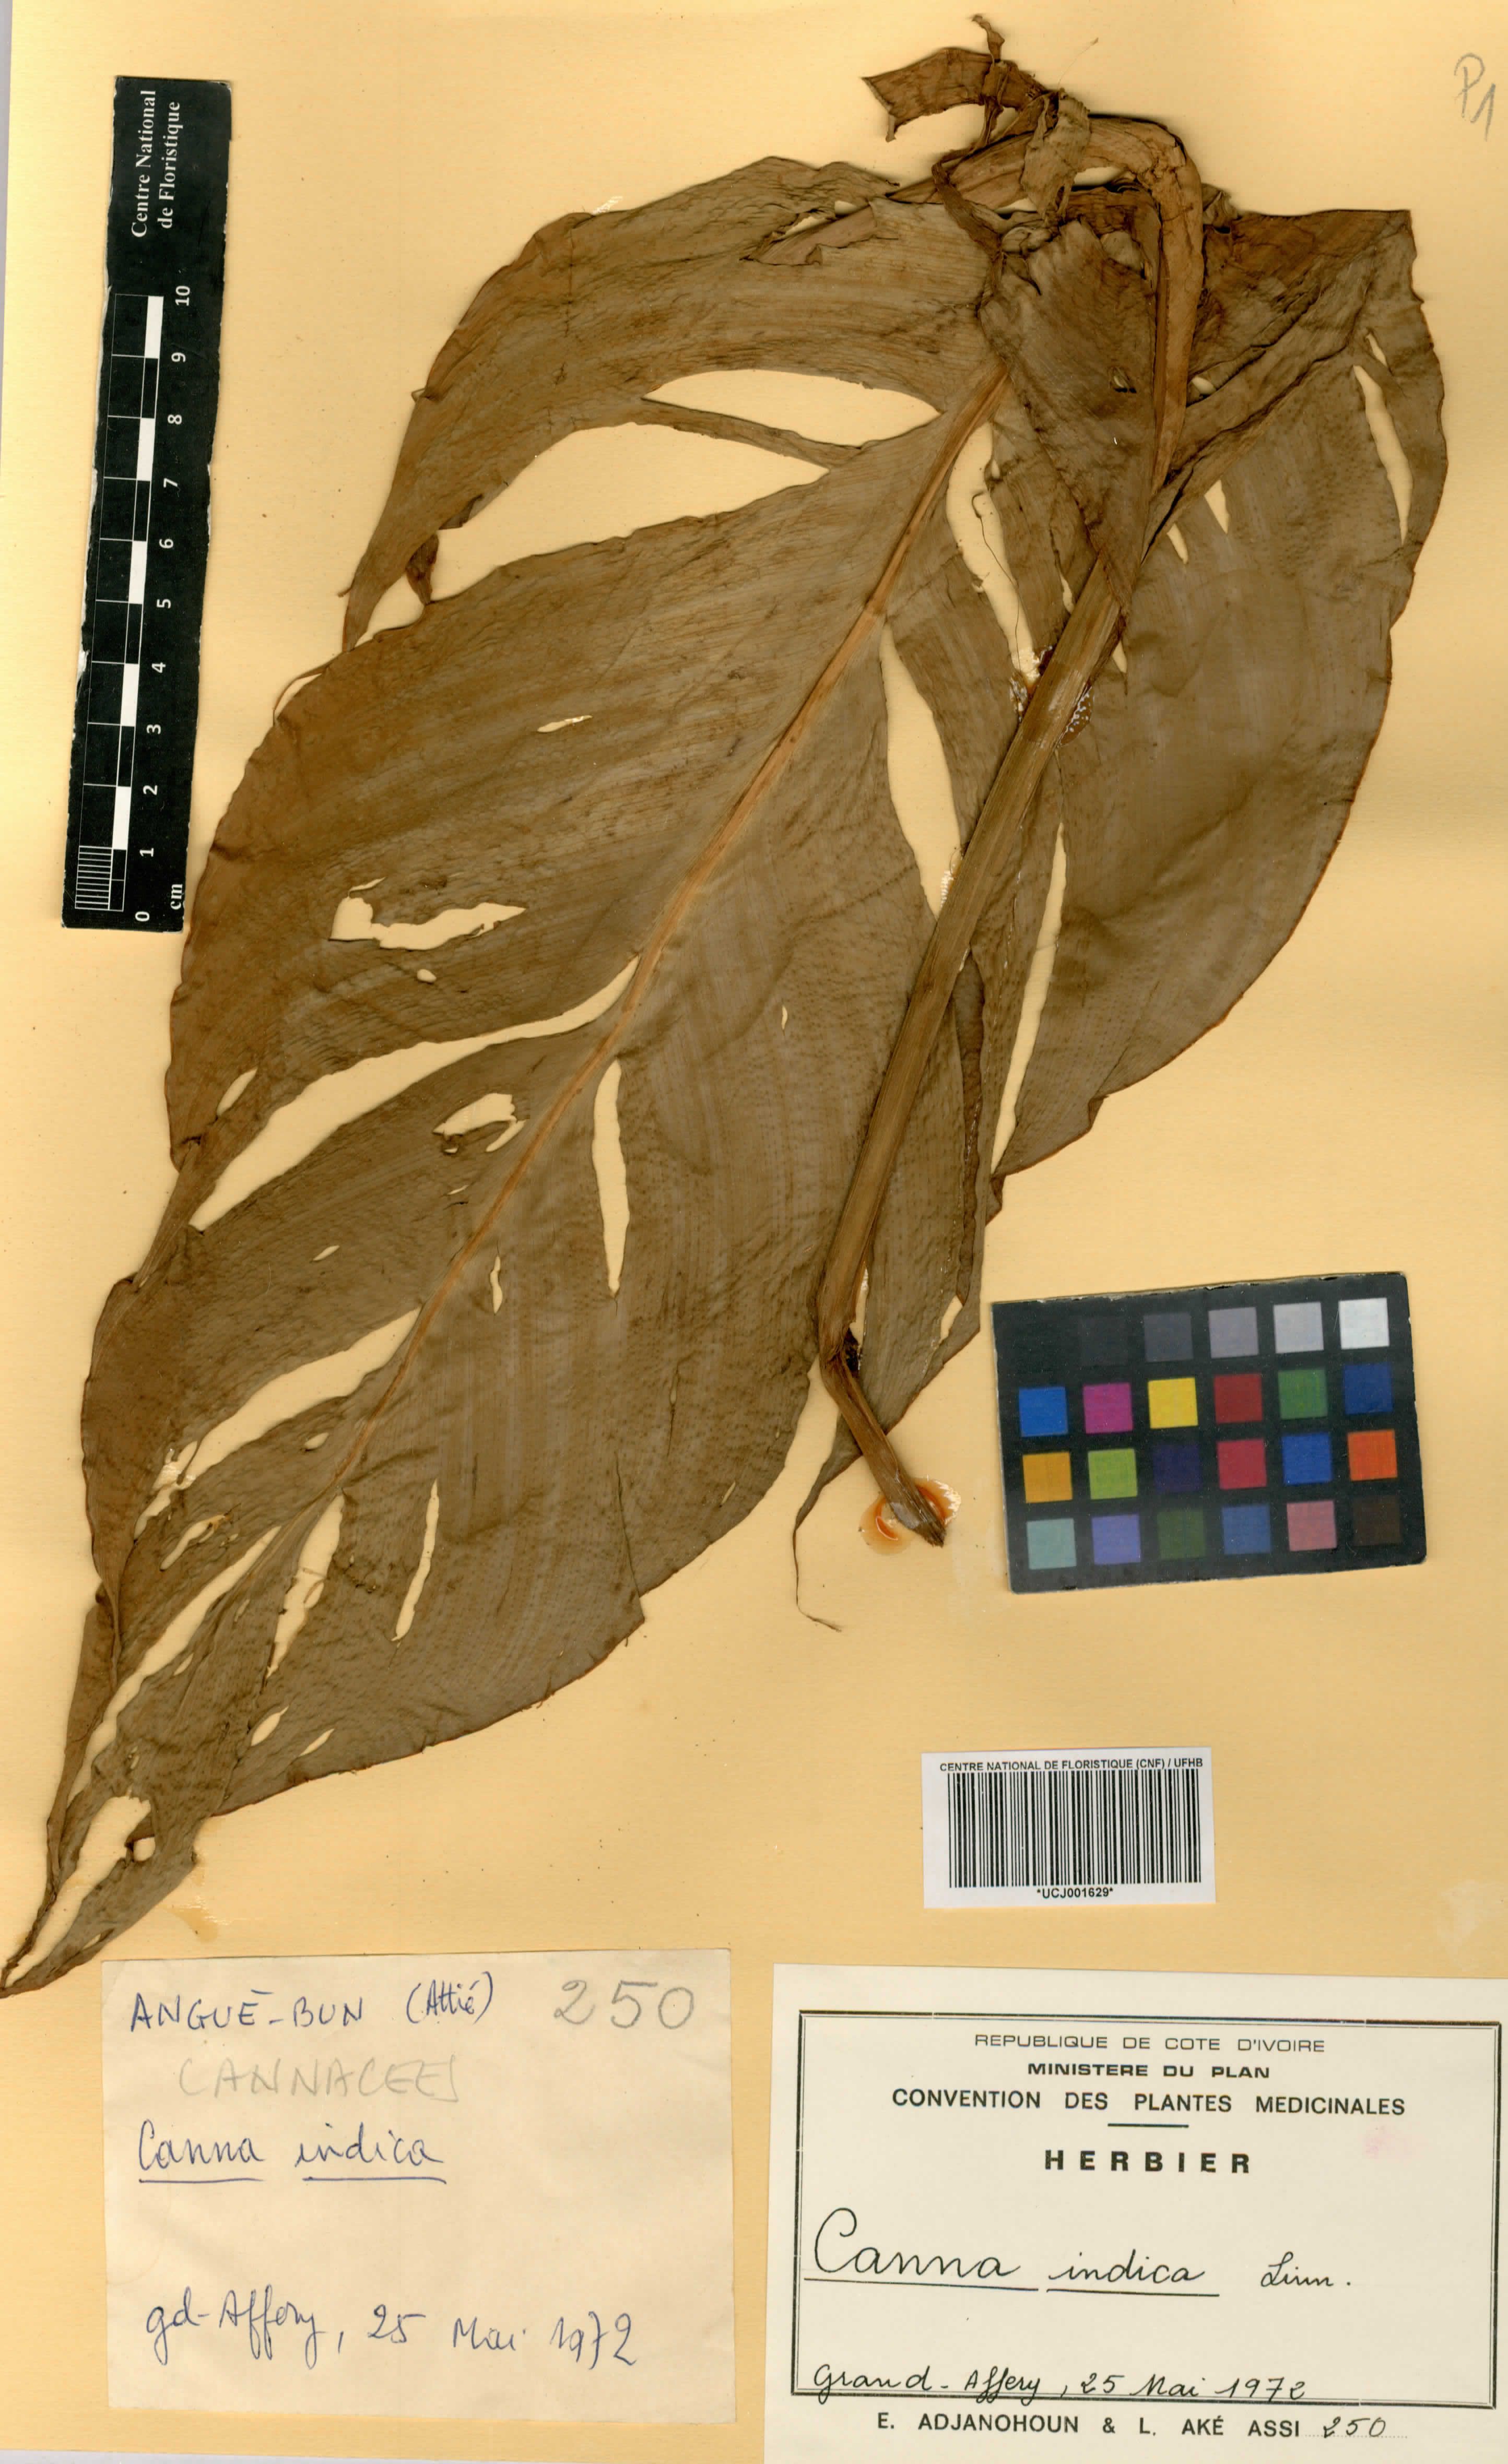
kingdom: Plantae
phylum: Tracheophyta
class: Liliopsida
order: Zingiberales
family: Cannaceae
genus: Canna
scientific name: Canna indica
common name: Indian shot
